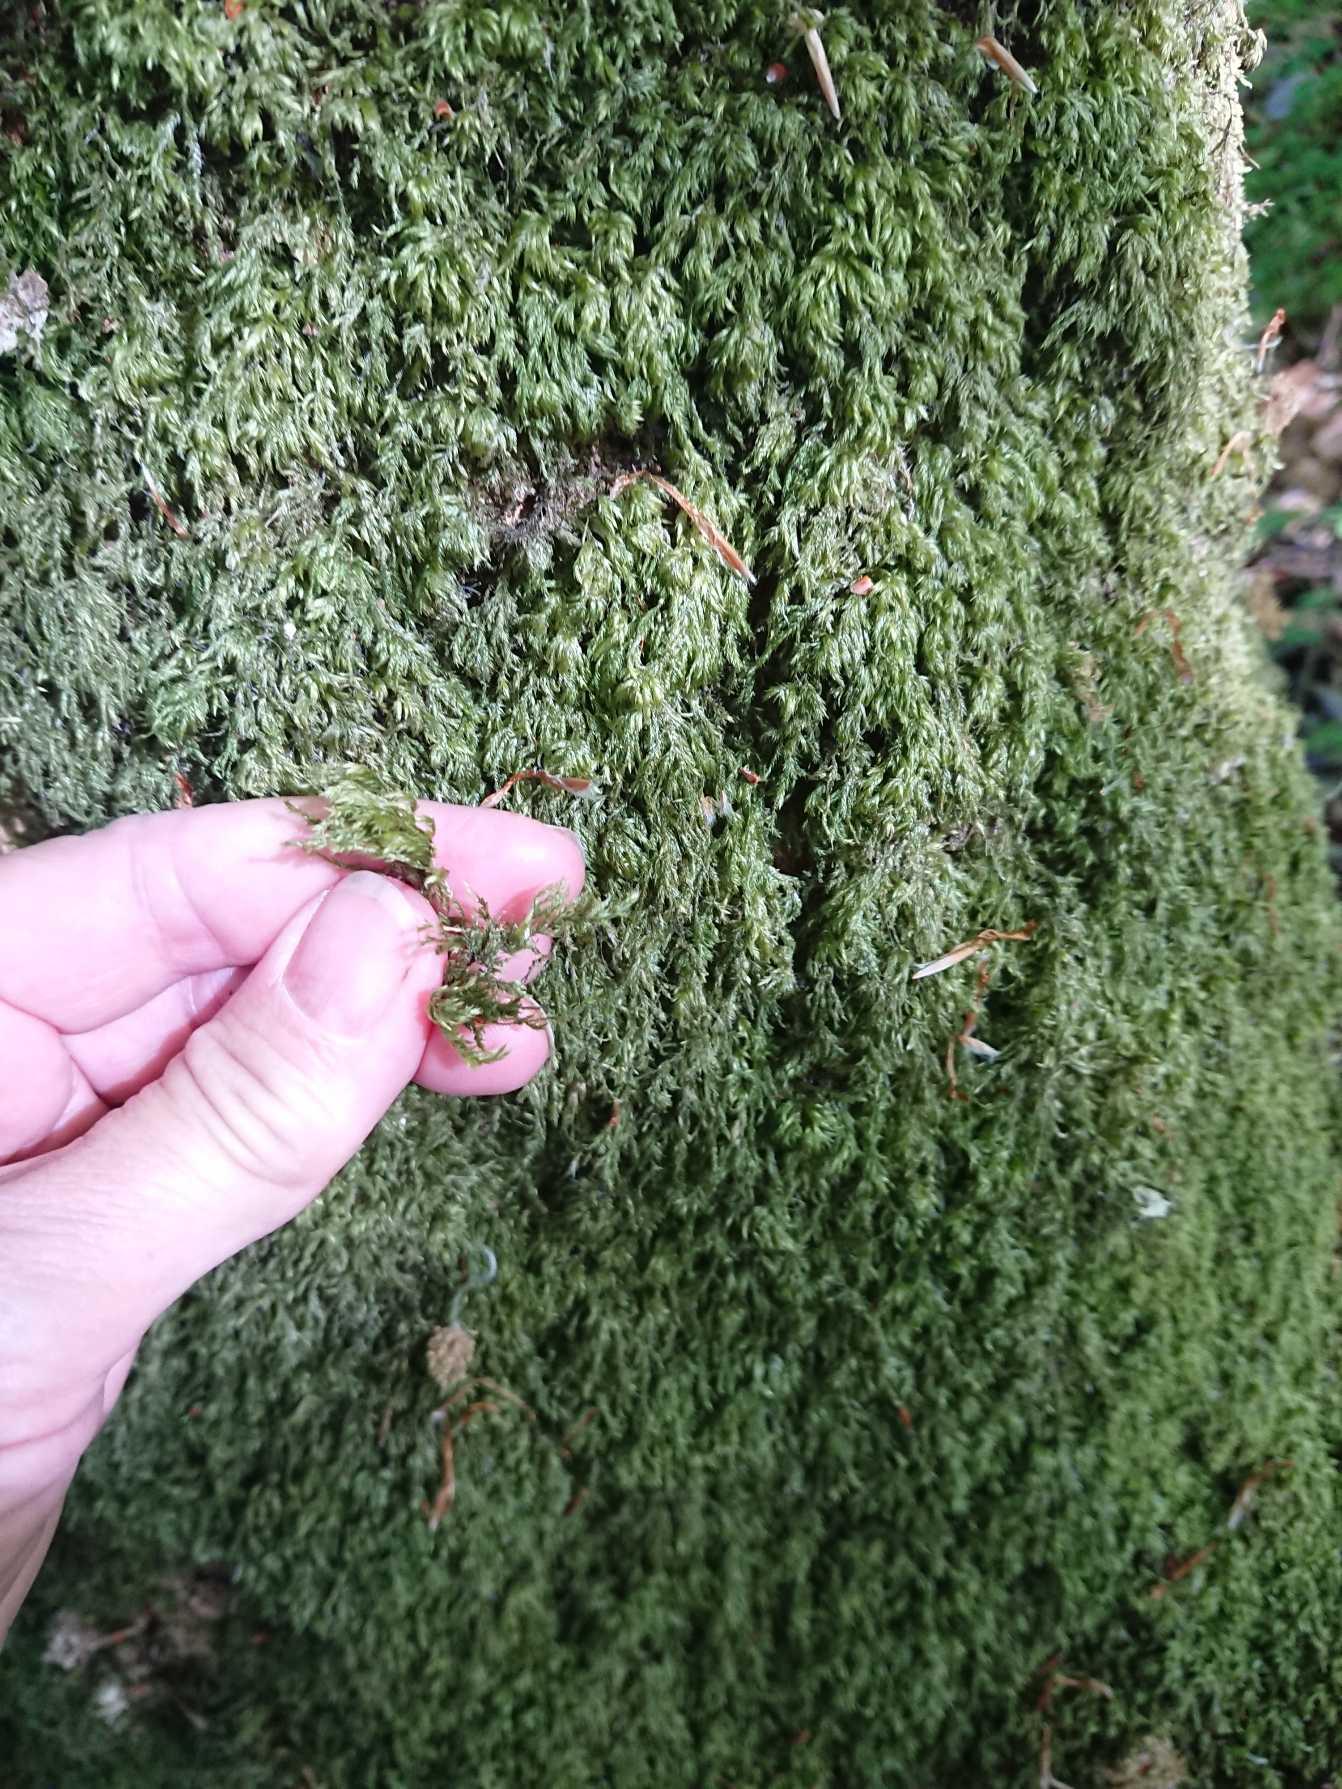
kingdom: Plantae
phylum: Bryophyta
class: Bryopsida
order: Hypnales
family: Lembophyllaceae
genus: Pseudisothecium
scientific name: Pseudisothecium myosuroides
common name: Slank stammemos
